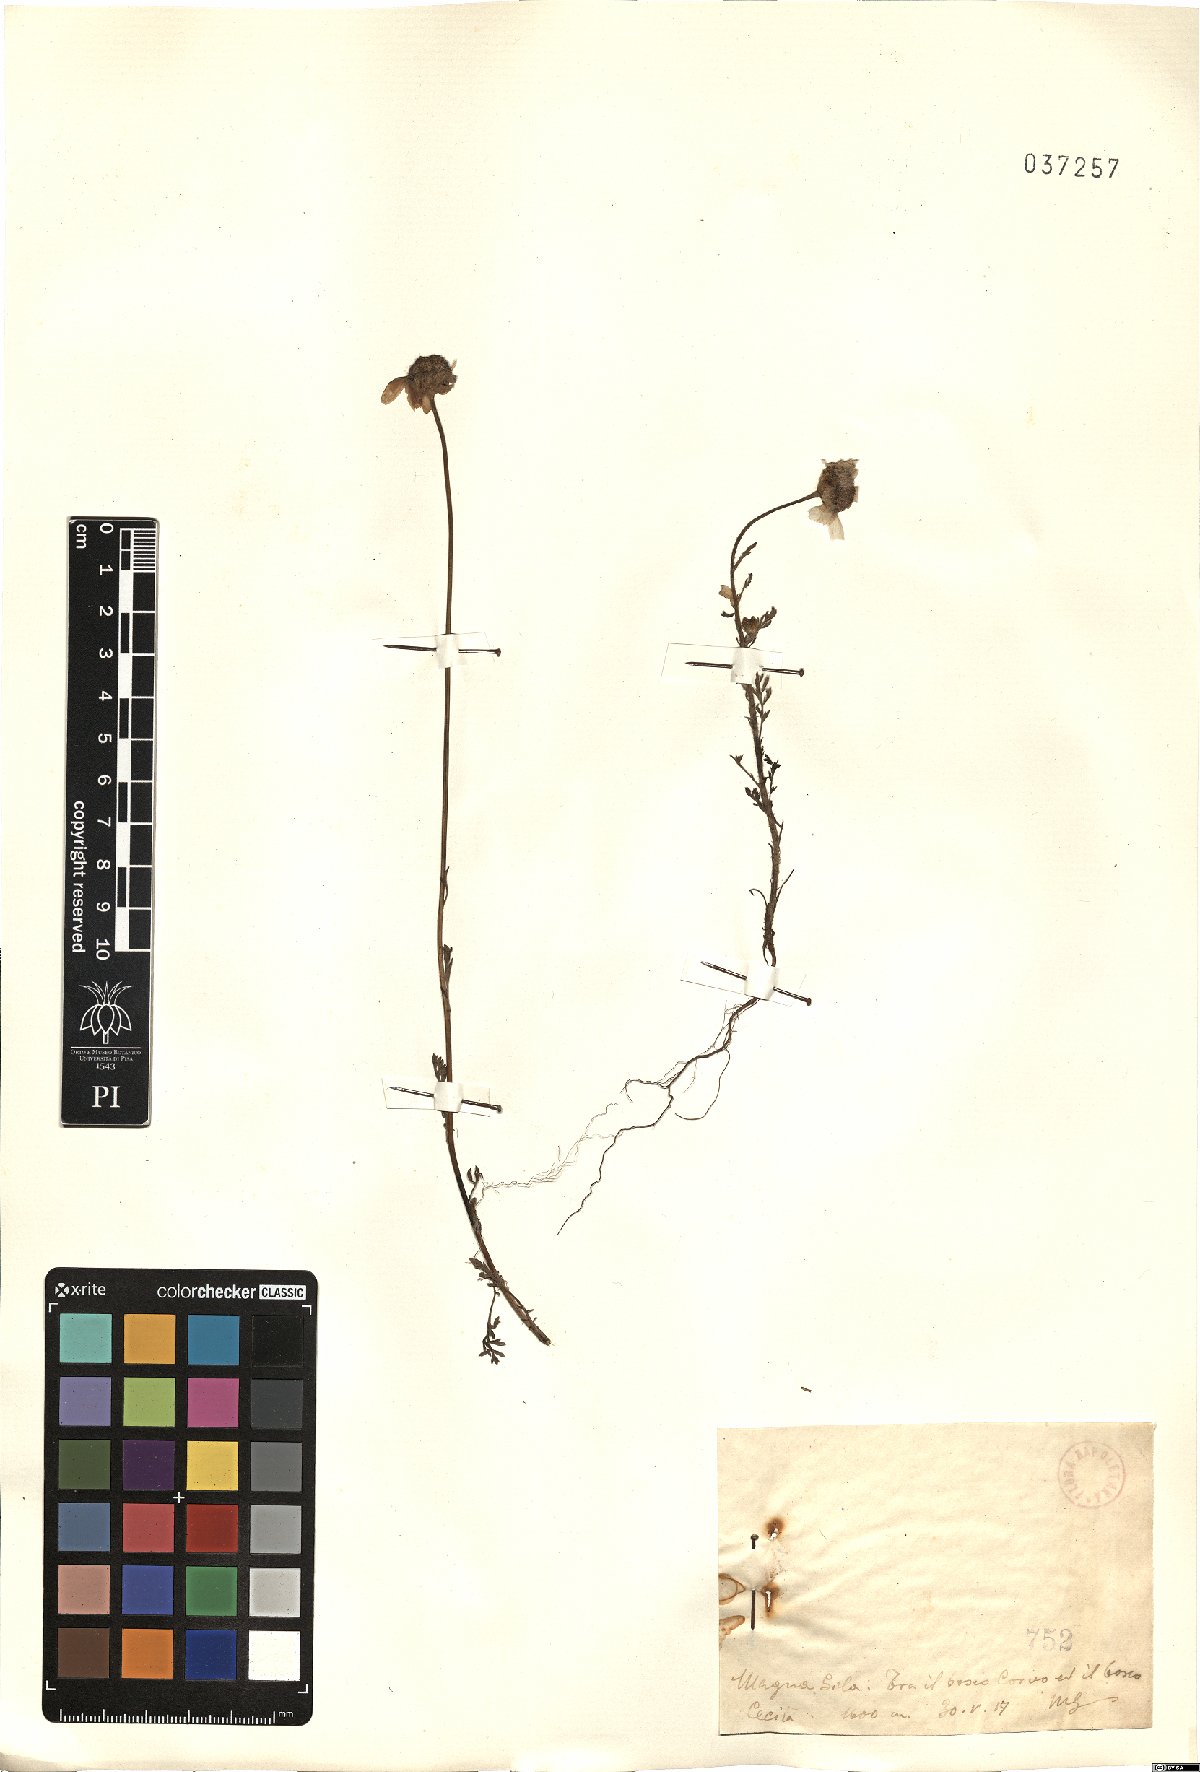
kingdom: Plantae
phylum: Tracheophyta
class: Magnoliopsida
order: Asterales
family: Asteraceae
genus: Anthemis
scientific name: Anthemis
